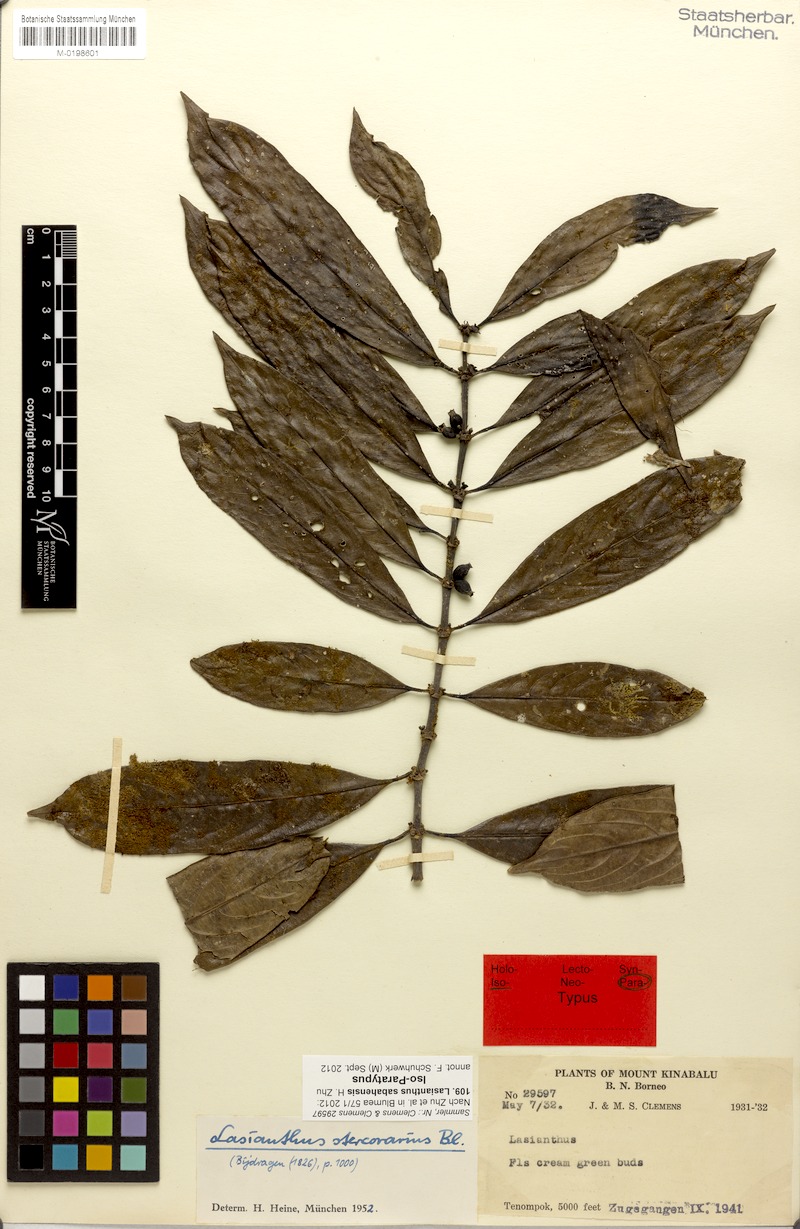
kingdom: Plantae
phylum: Tracheophyta
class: Magnoliopsida
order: Gentianales
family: Rubiaceae
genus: Lasianthus
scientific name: Lasianthus sabahensis
